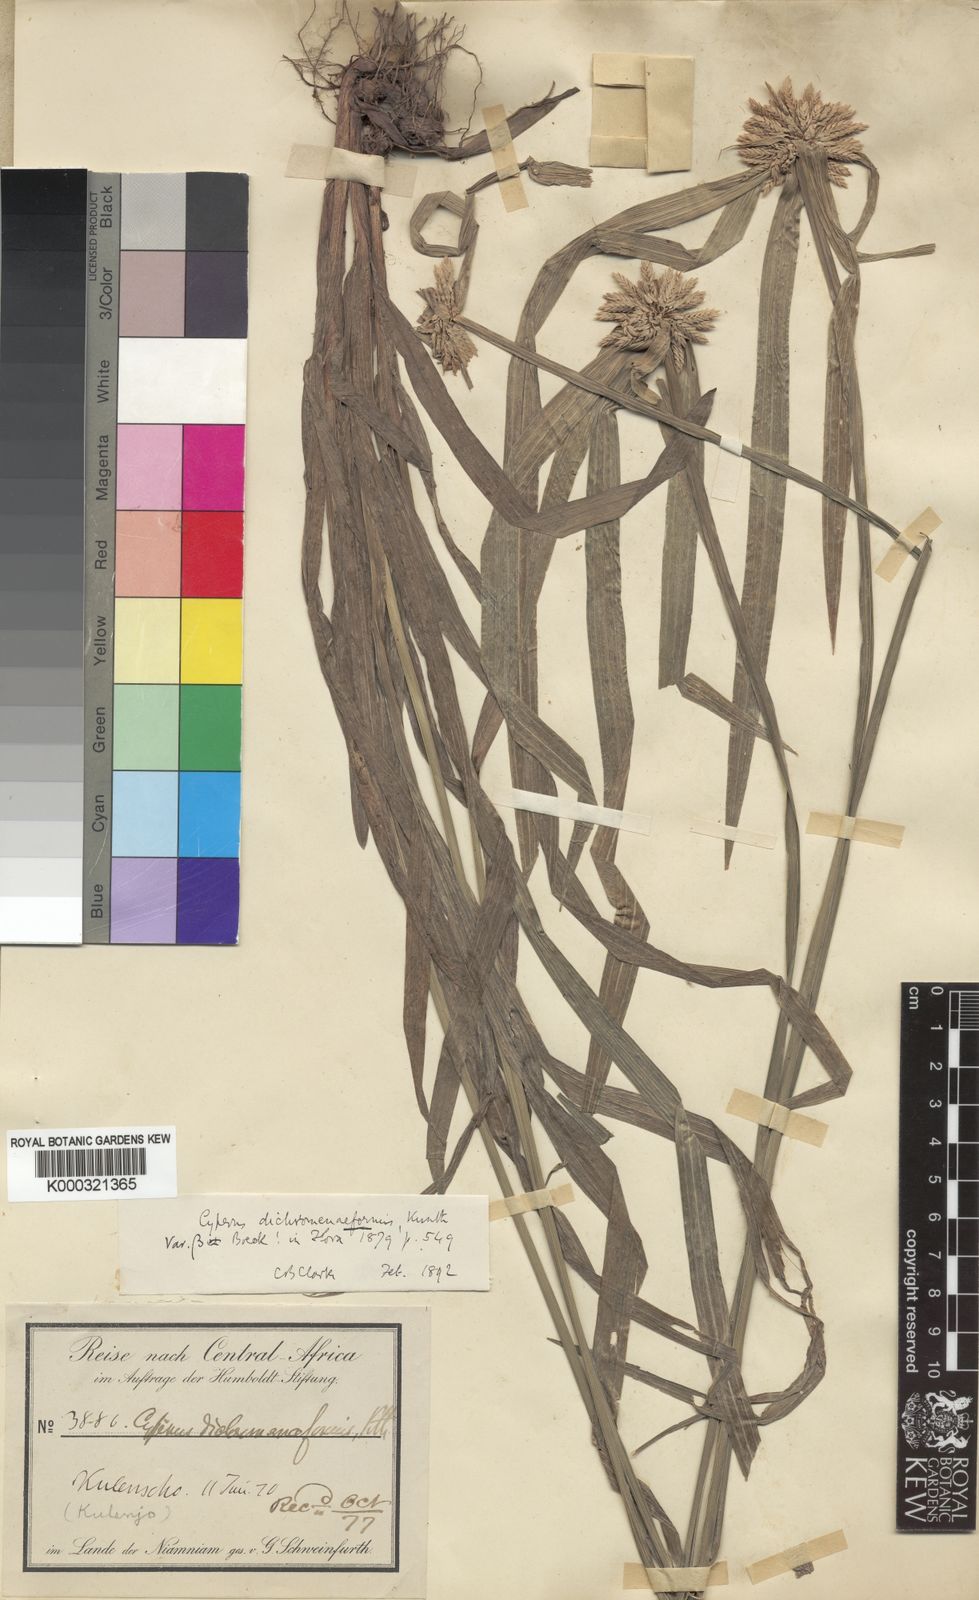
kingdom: Plantae
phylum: Tracheophyta
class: Liliopsida
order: Poales
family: Cyperaceae
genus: Cyperus
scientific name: Cyperus mapanioides
